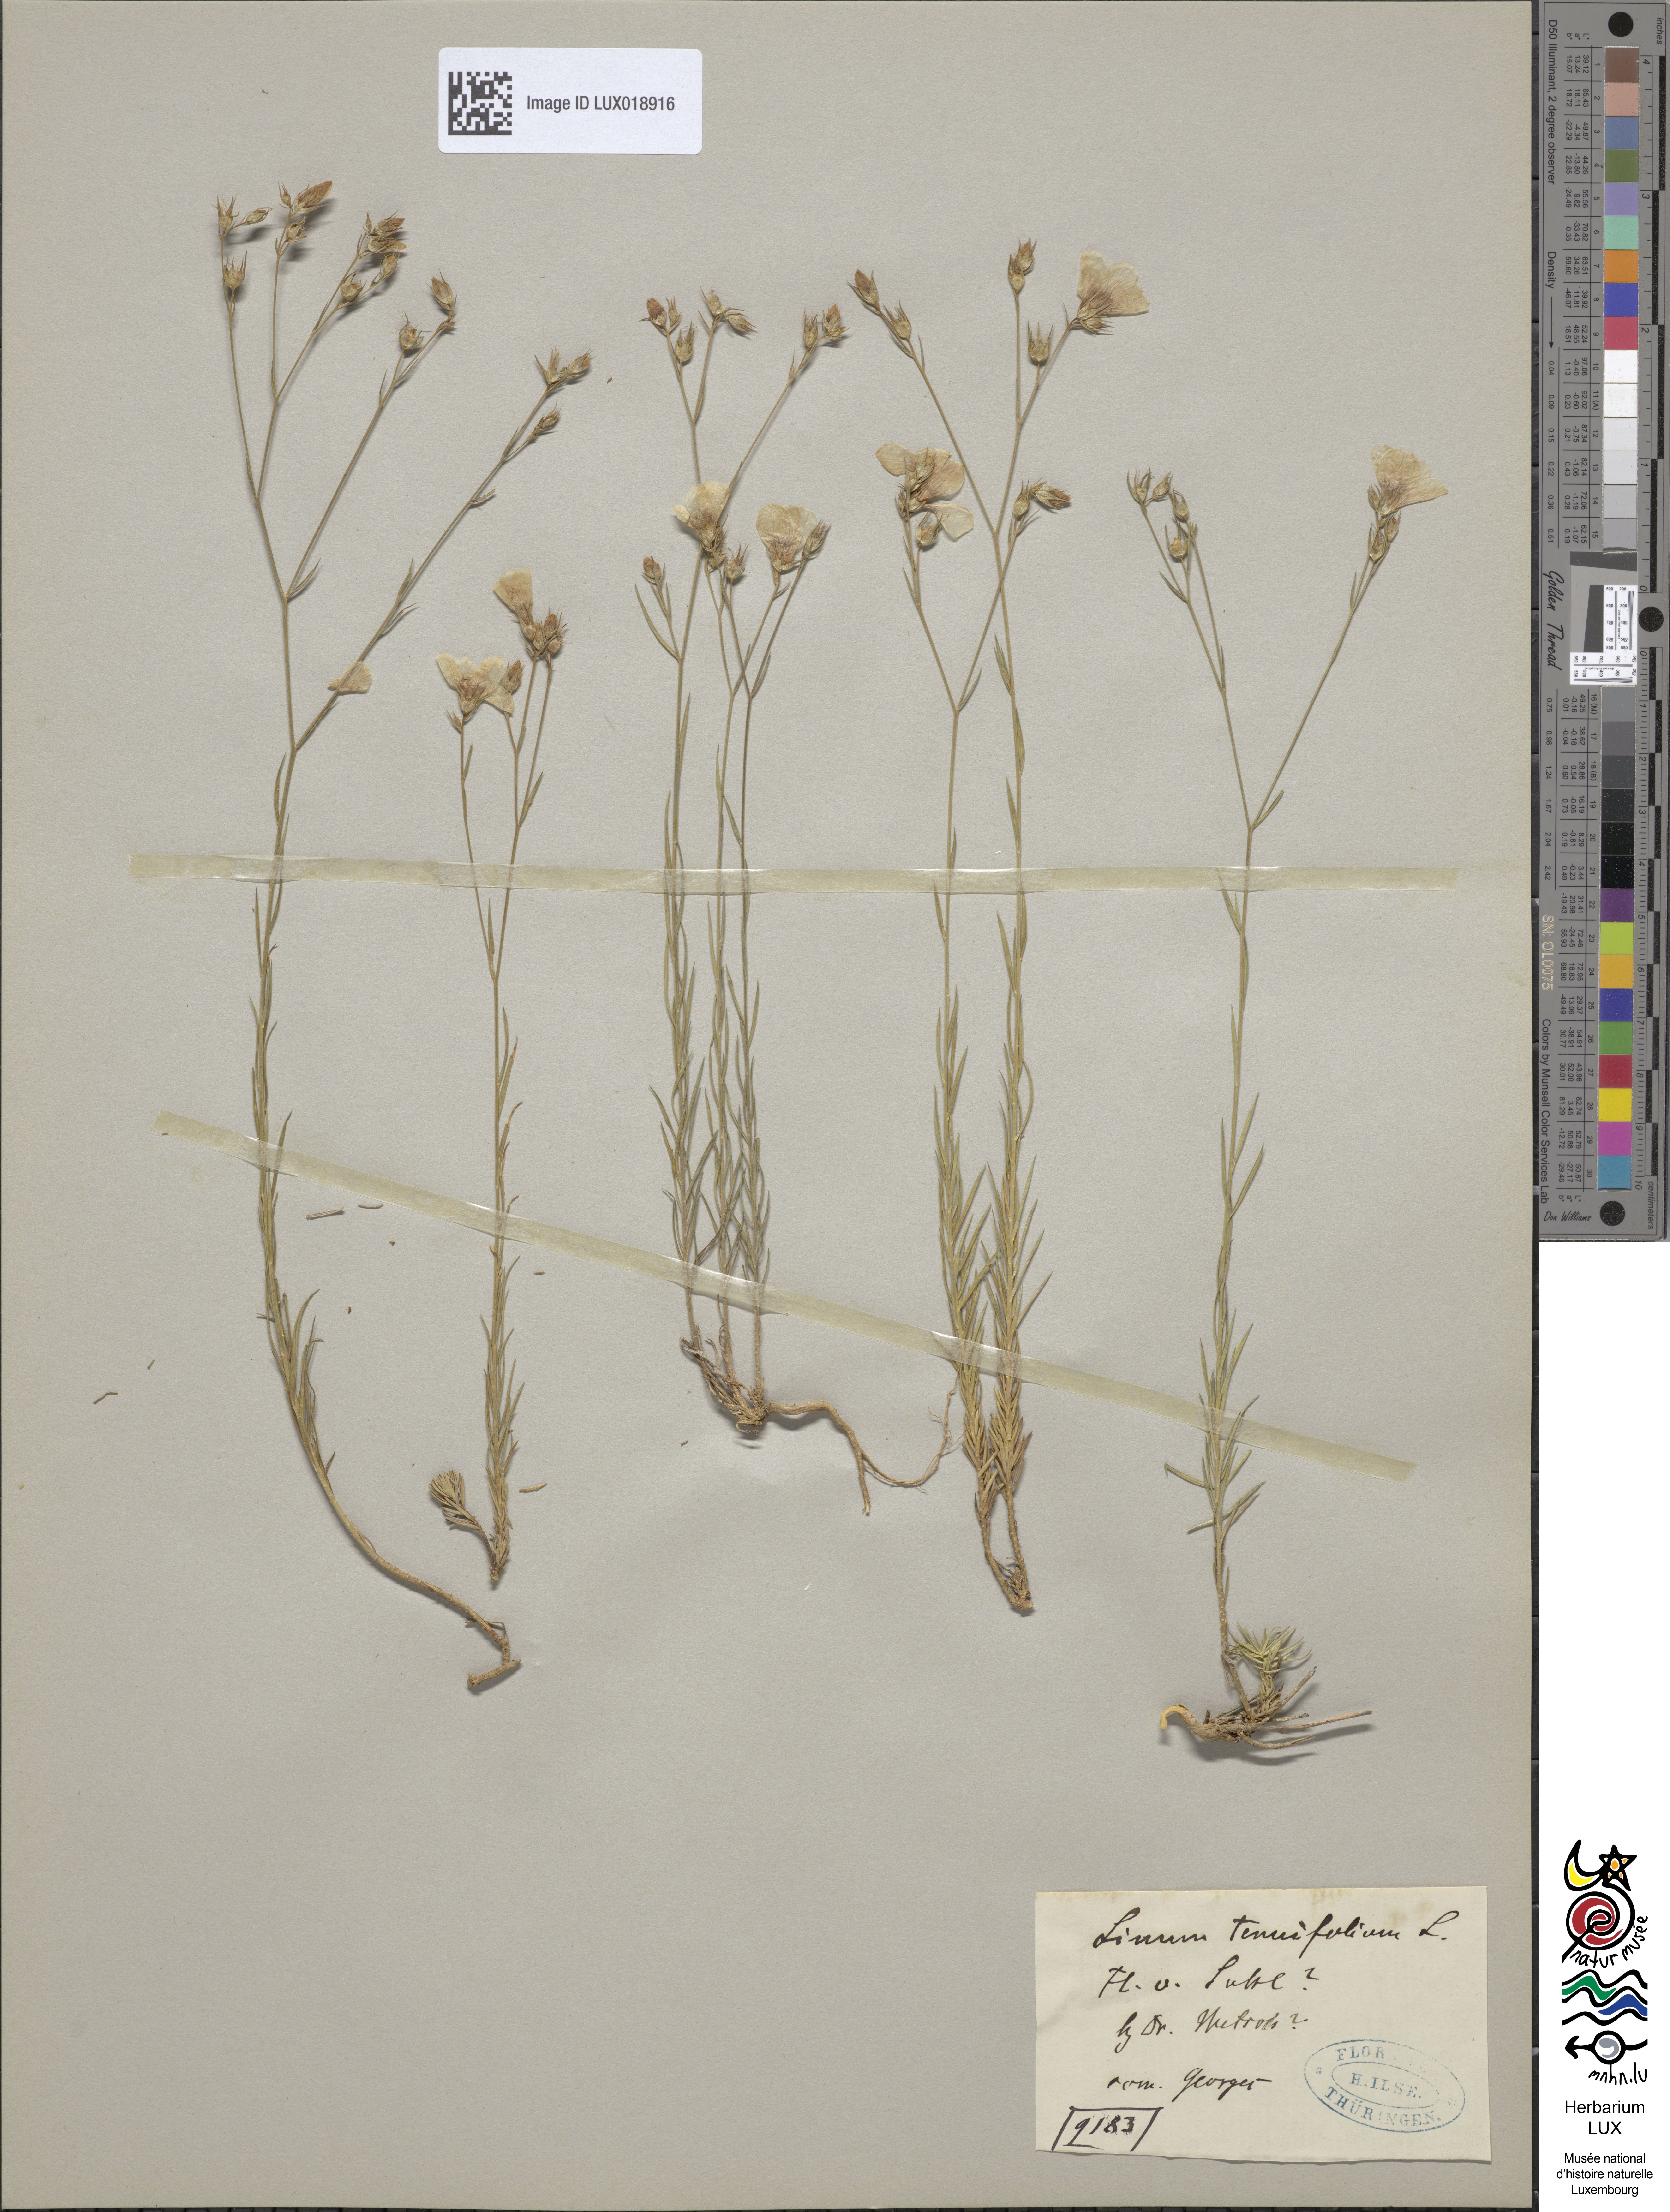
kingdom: Plantae
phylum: Tracheophyta
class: Magnoliopsida
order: Malpighiales
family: Linaceae
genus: Linum
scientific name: Linum tenuifolium
